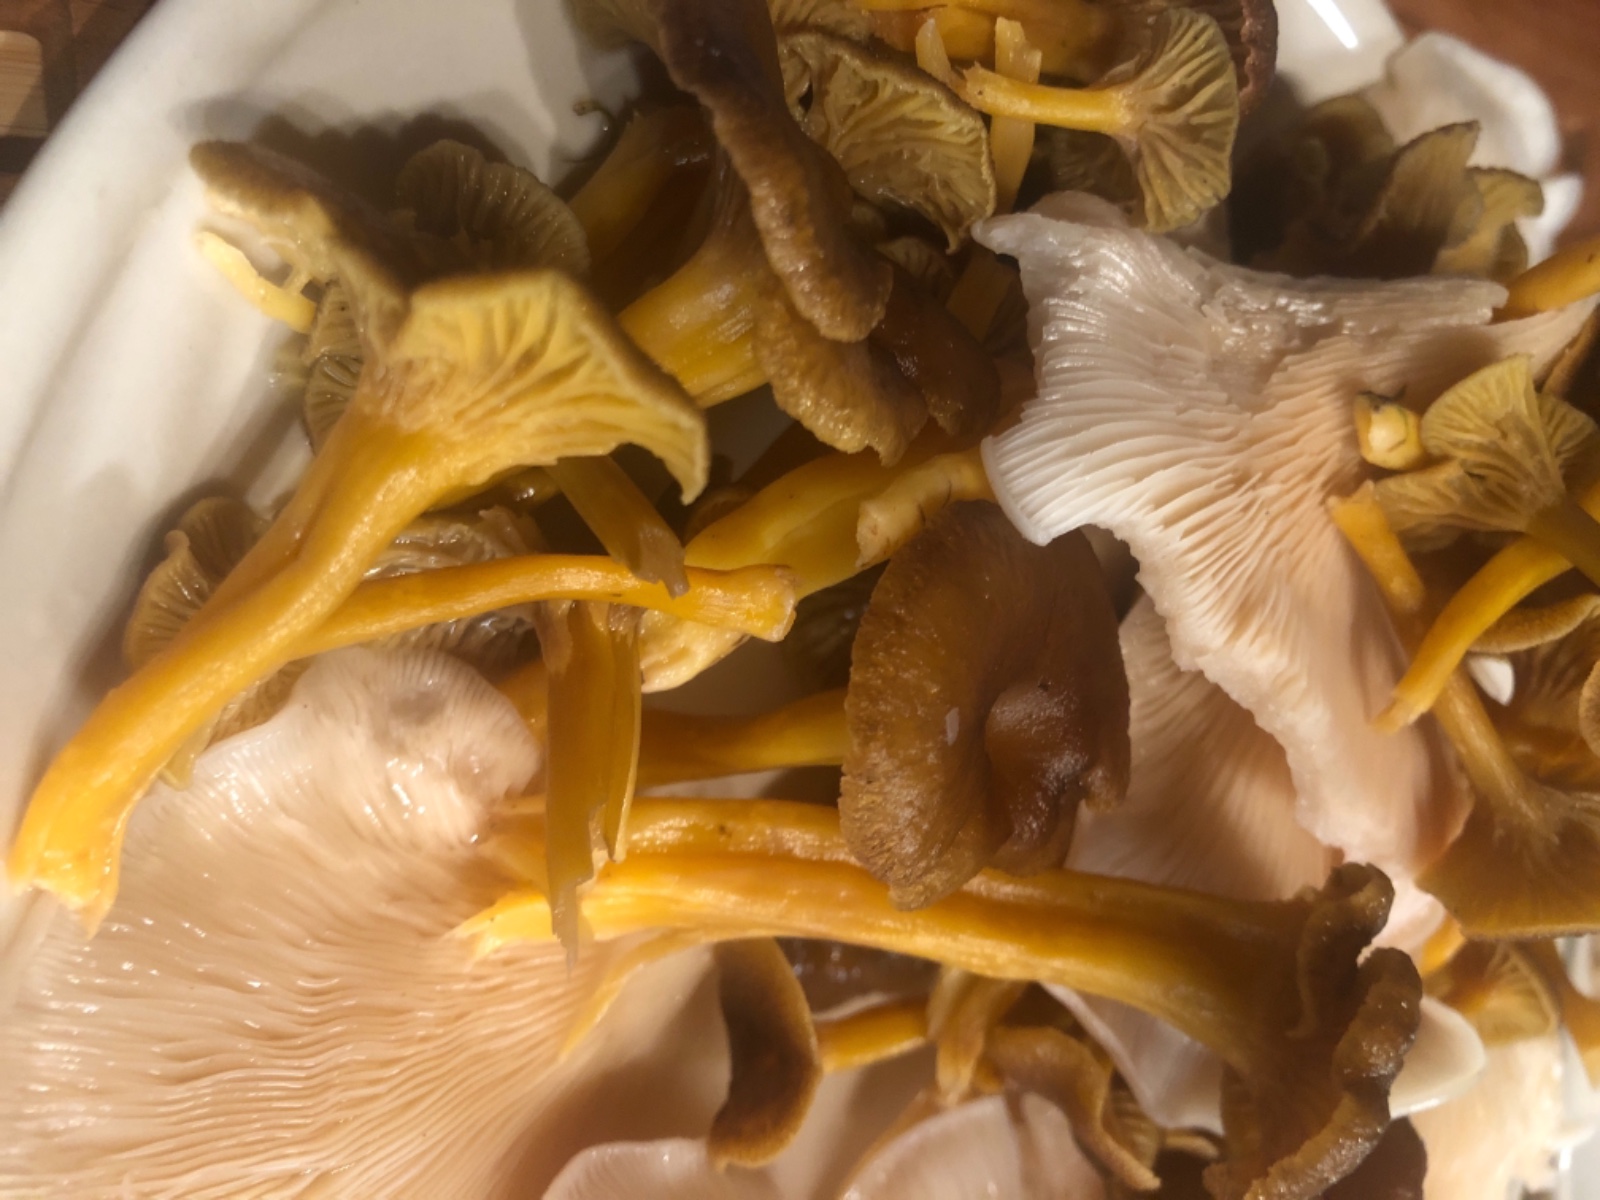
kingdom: Fungi
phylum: Basidiomycota
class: Agaricomycetes
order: Cantharellales
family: Hydnaceae
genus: Craterellus
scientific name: Craterellus tubaeformis
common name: tragt-kantarel
